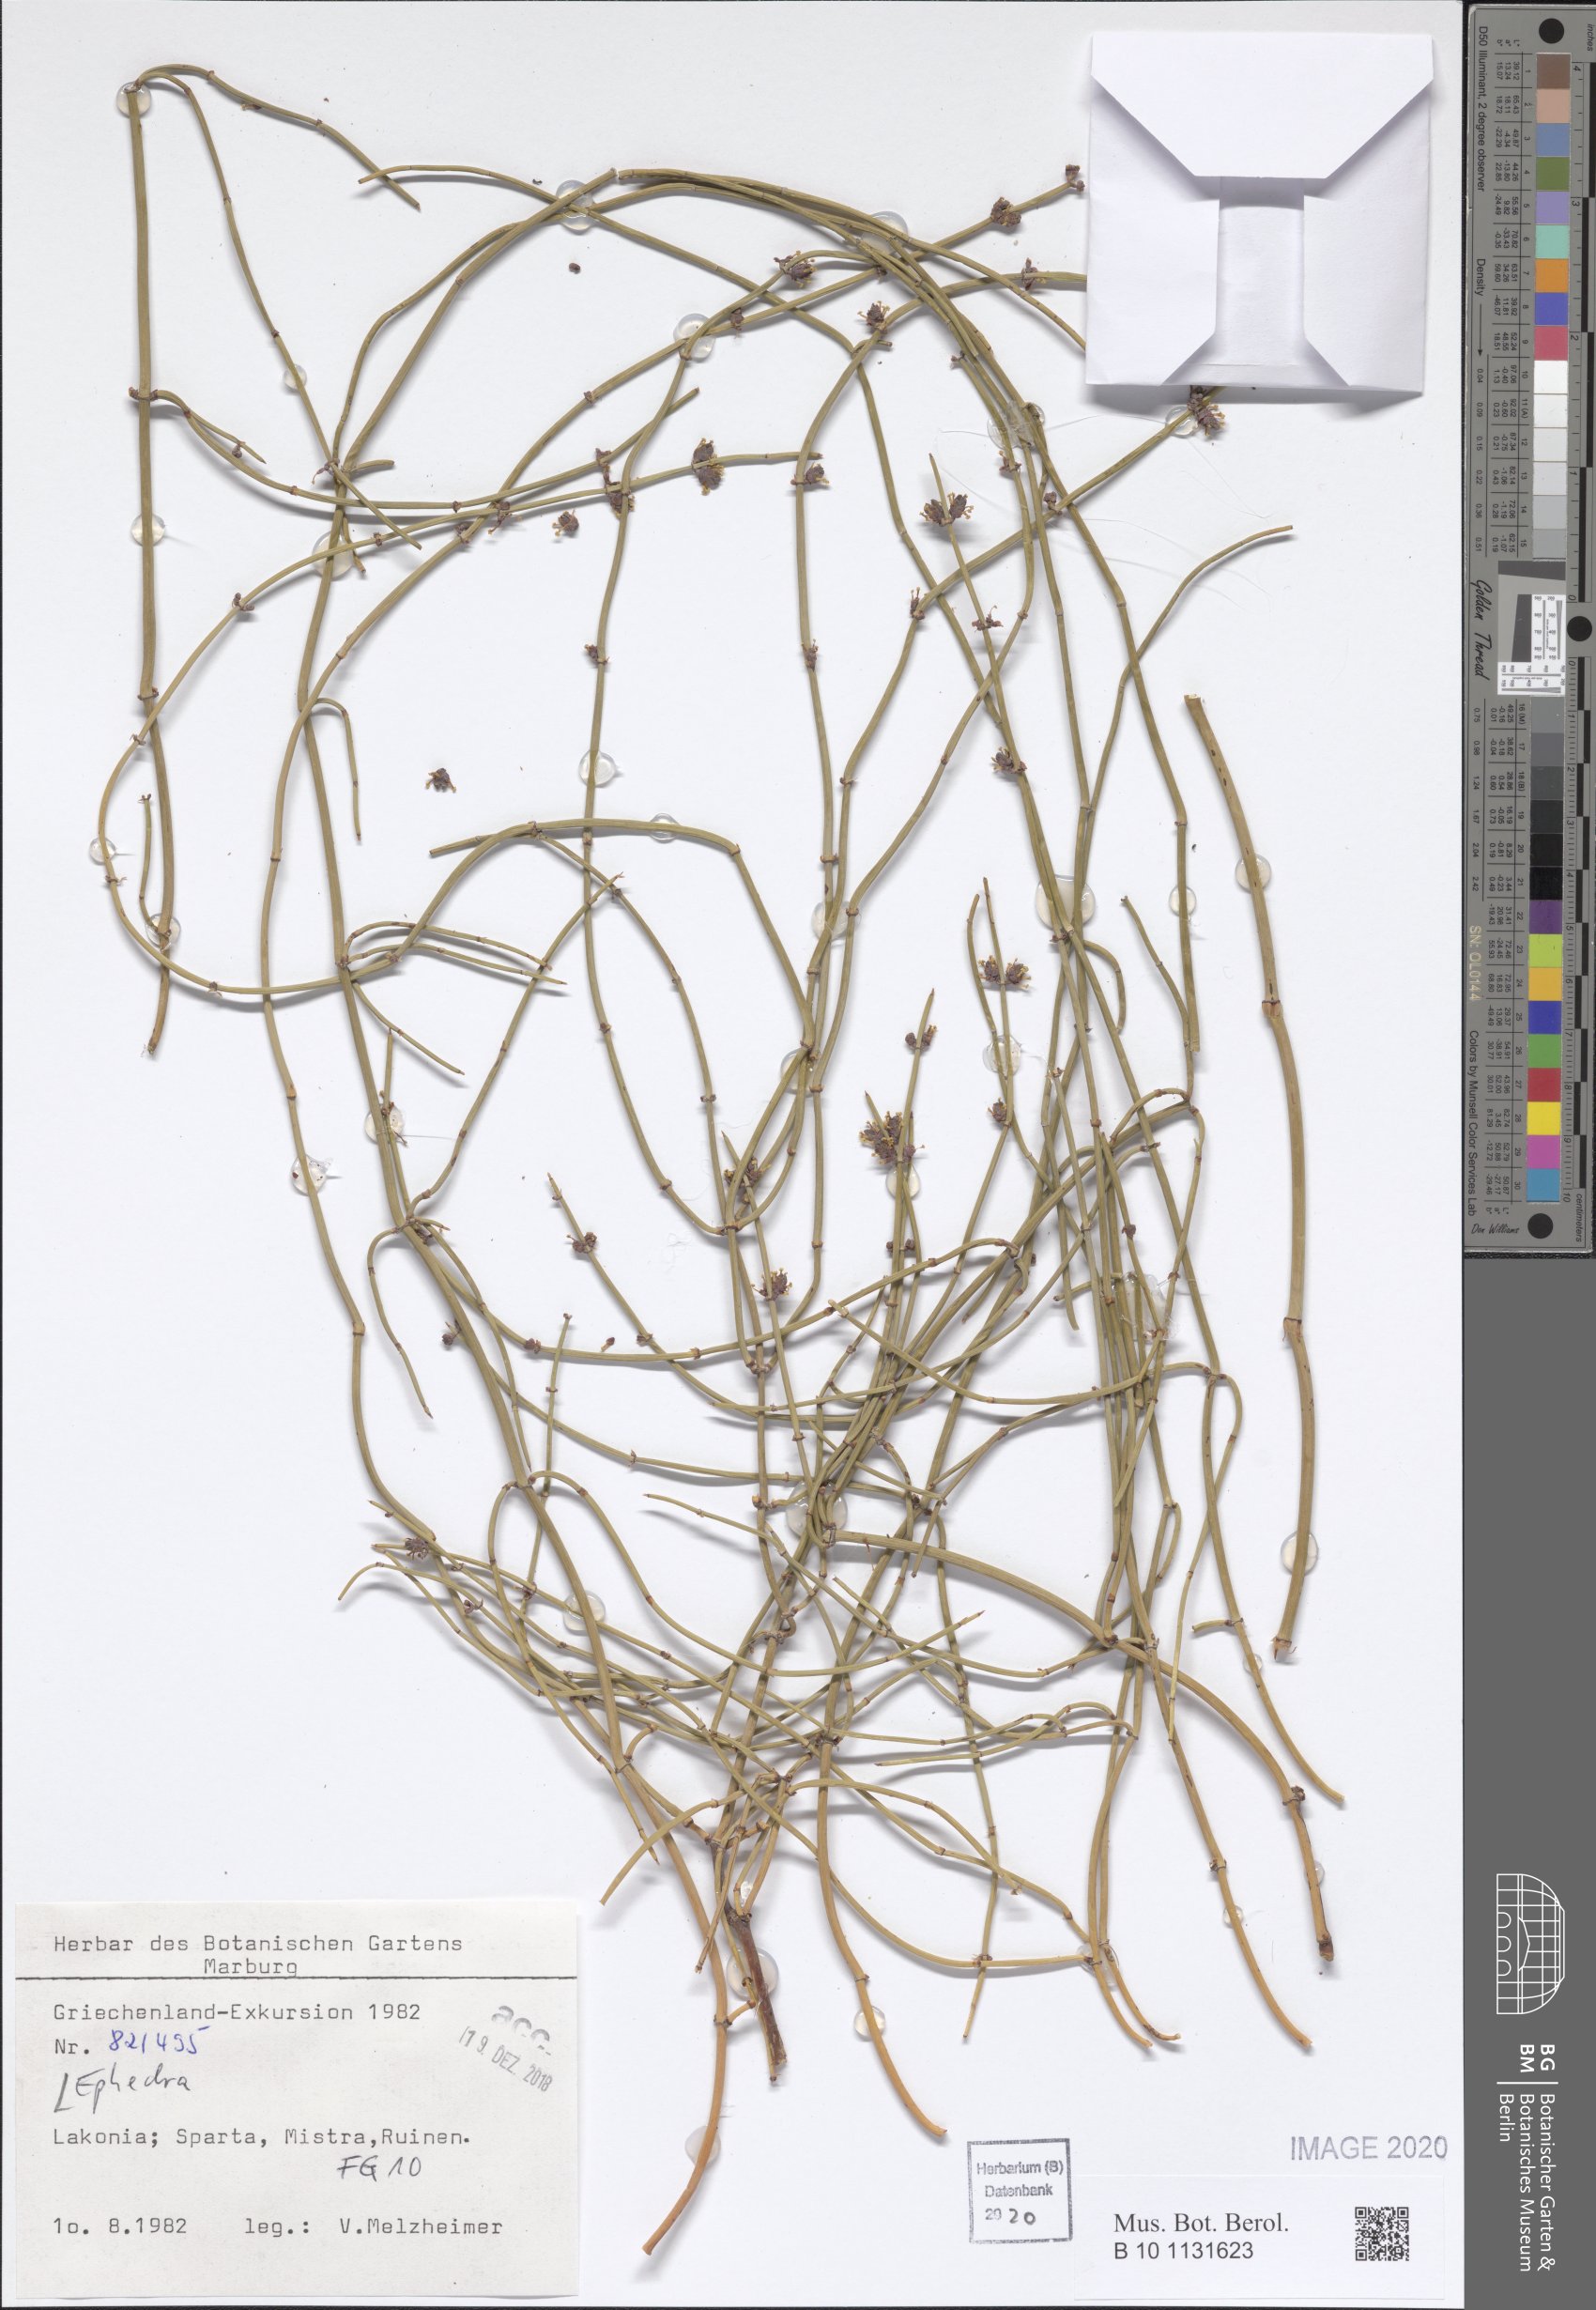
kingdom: Plantae
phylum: Tracheophyta
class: Gnetopsida
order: Ephedrales
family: Ephedraceae
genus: Ephedra
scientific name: Ephedra
